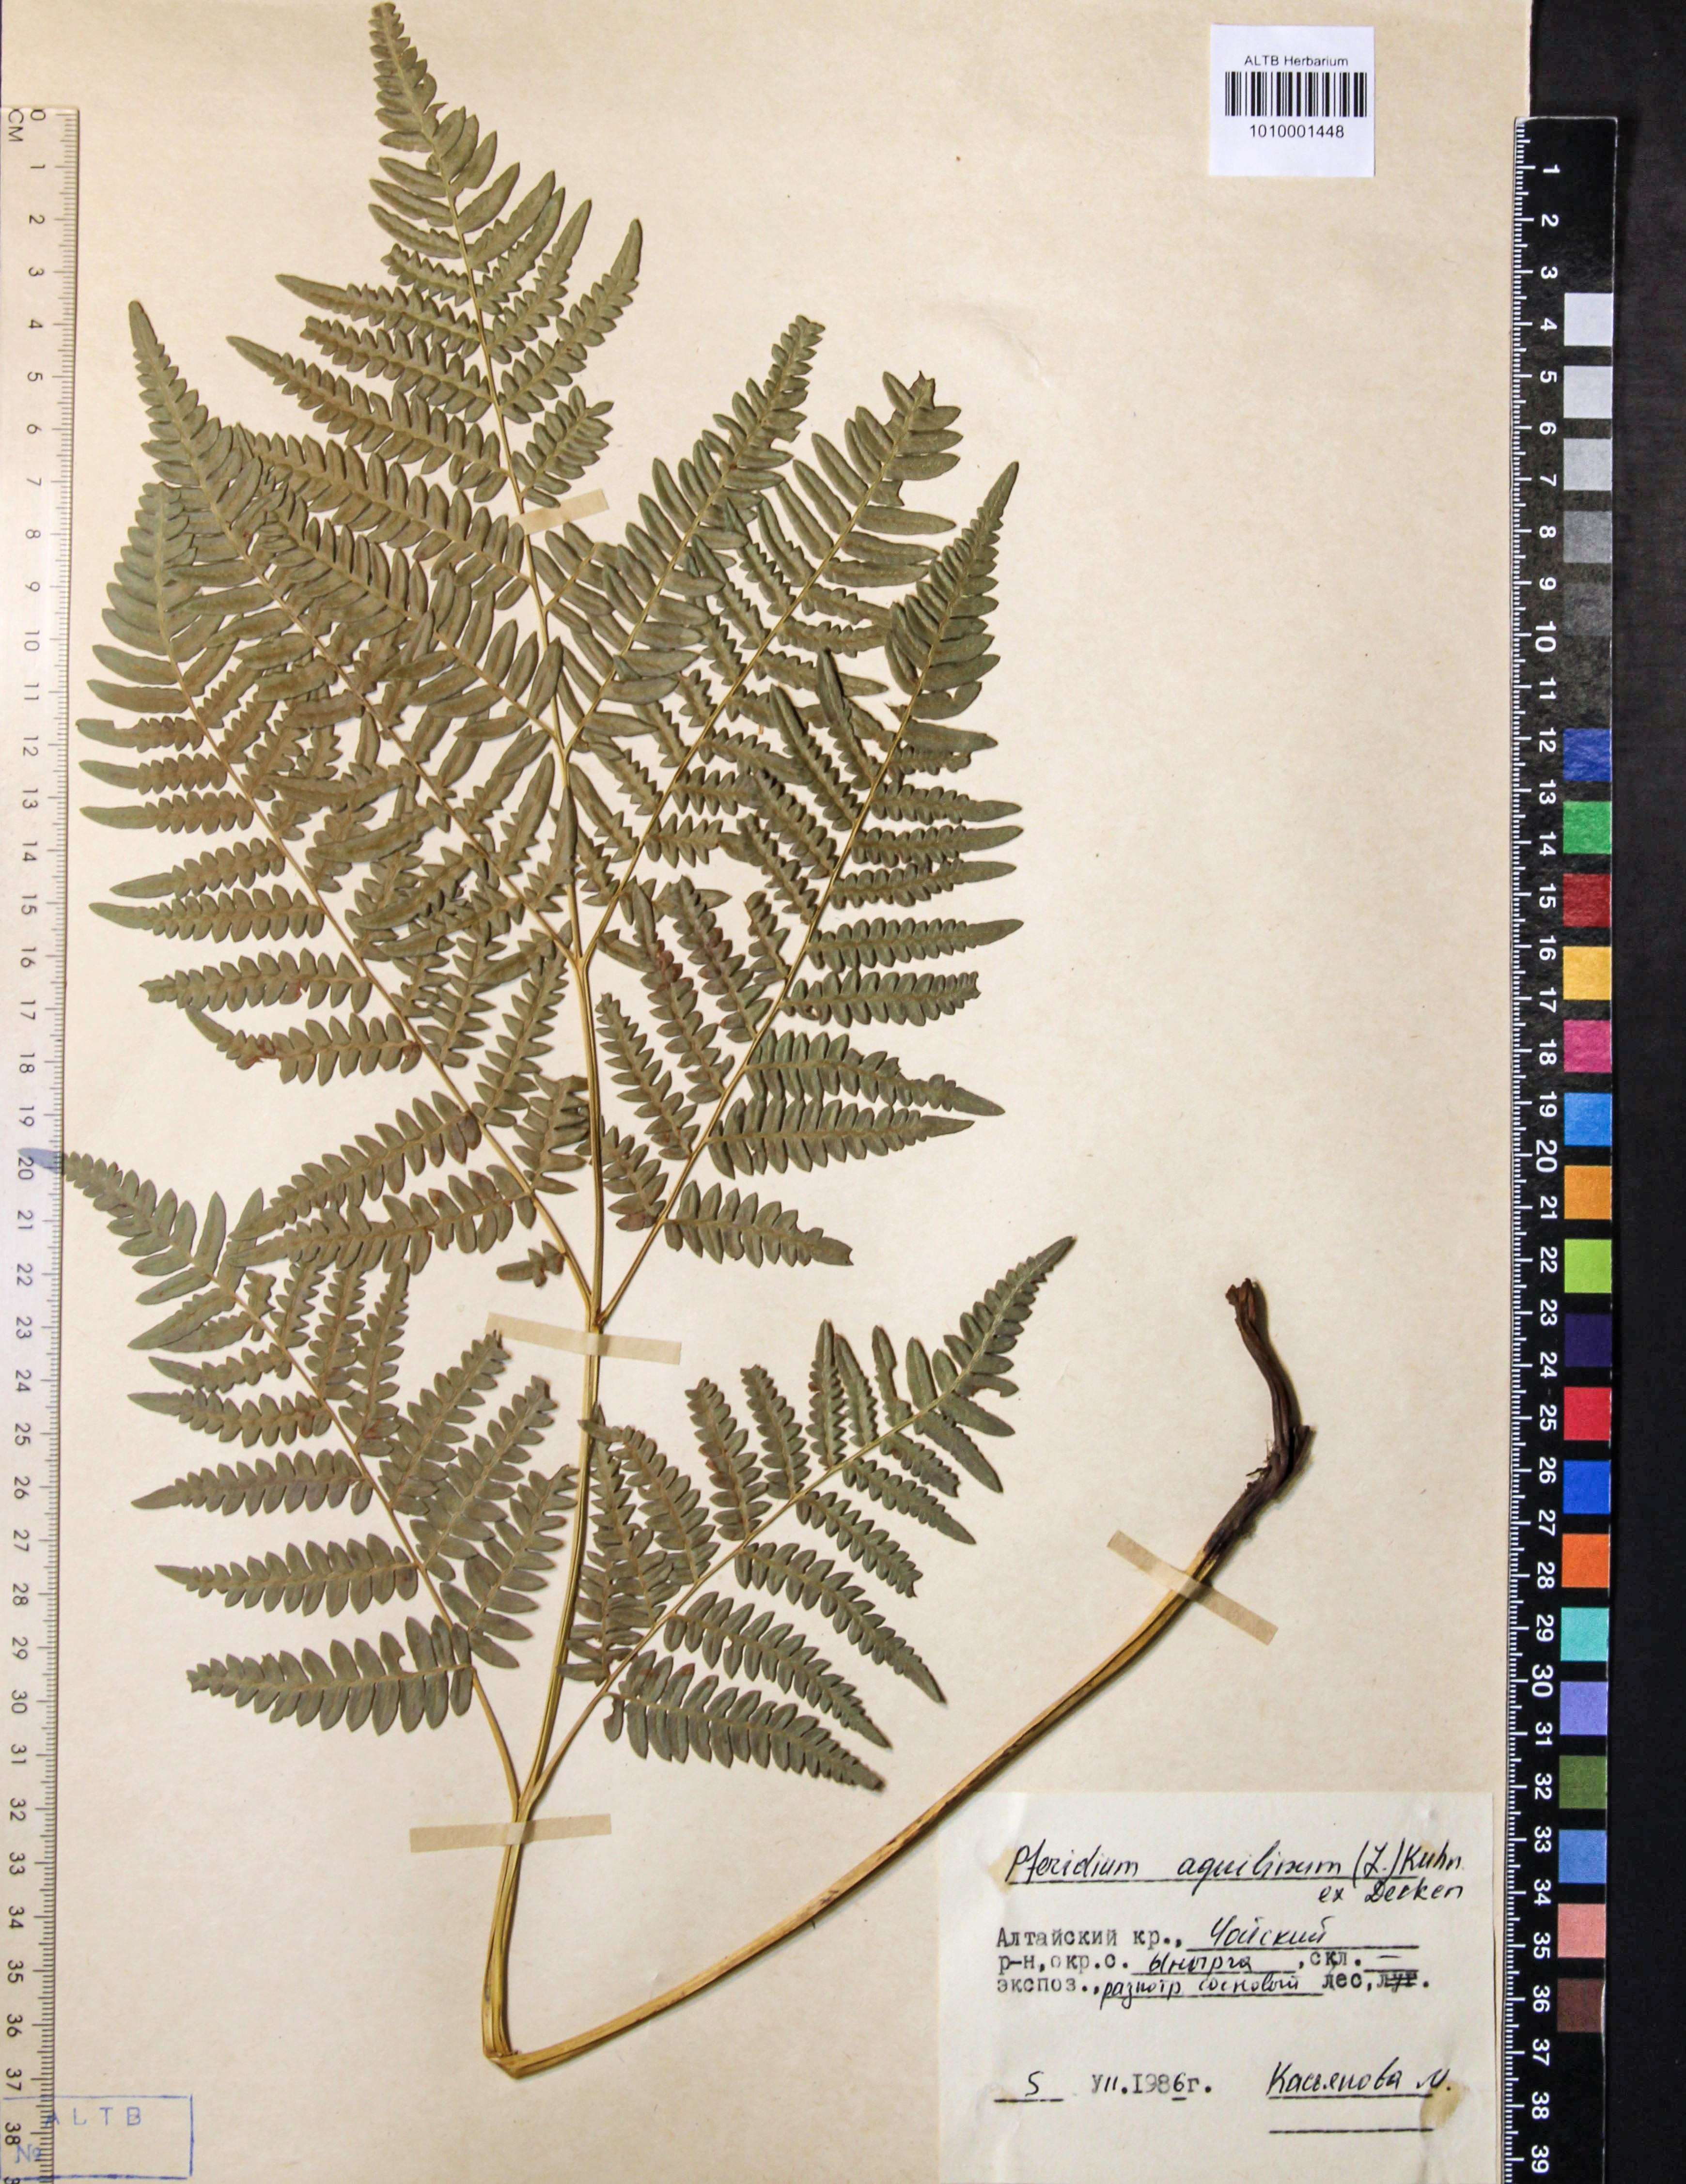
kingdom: Plantae
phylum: Tracheophyta
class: Polypodiopsida
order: Polypodiales
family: Dennstaedtiaceae
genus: Pteridium
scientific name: Pteridium aquilinum
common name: Bracken
